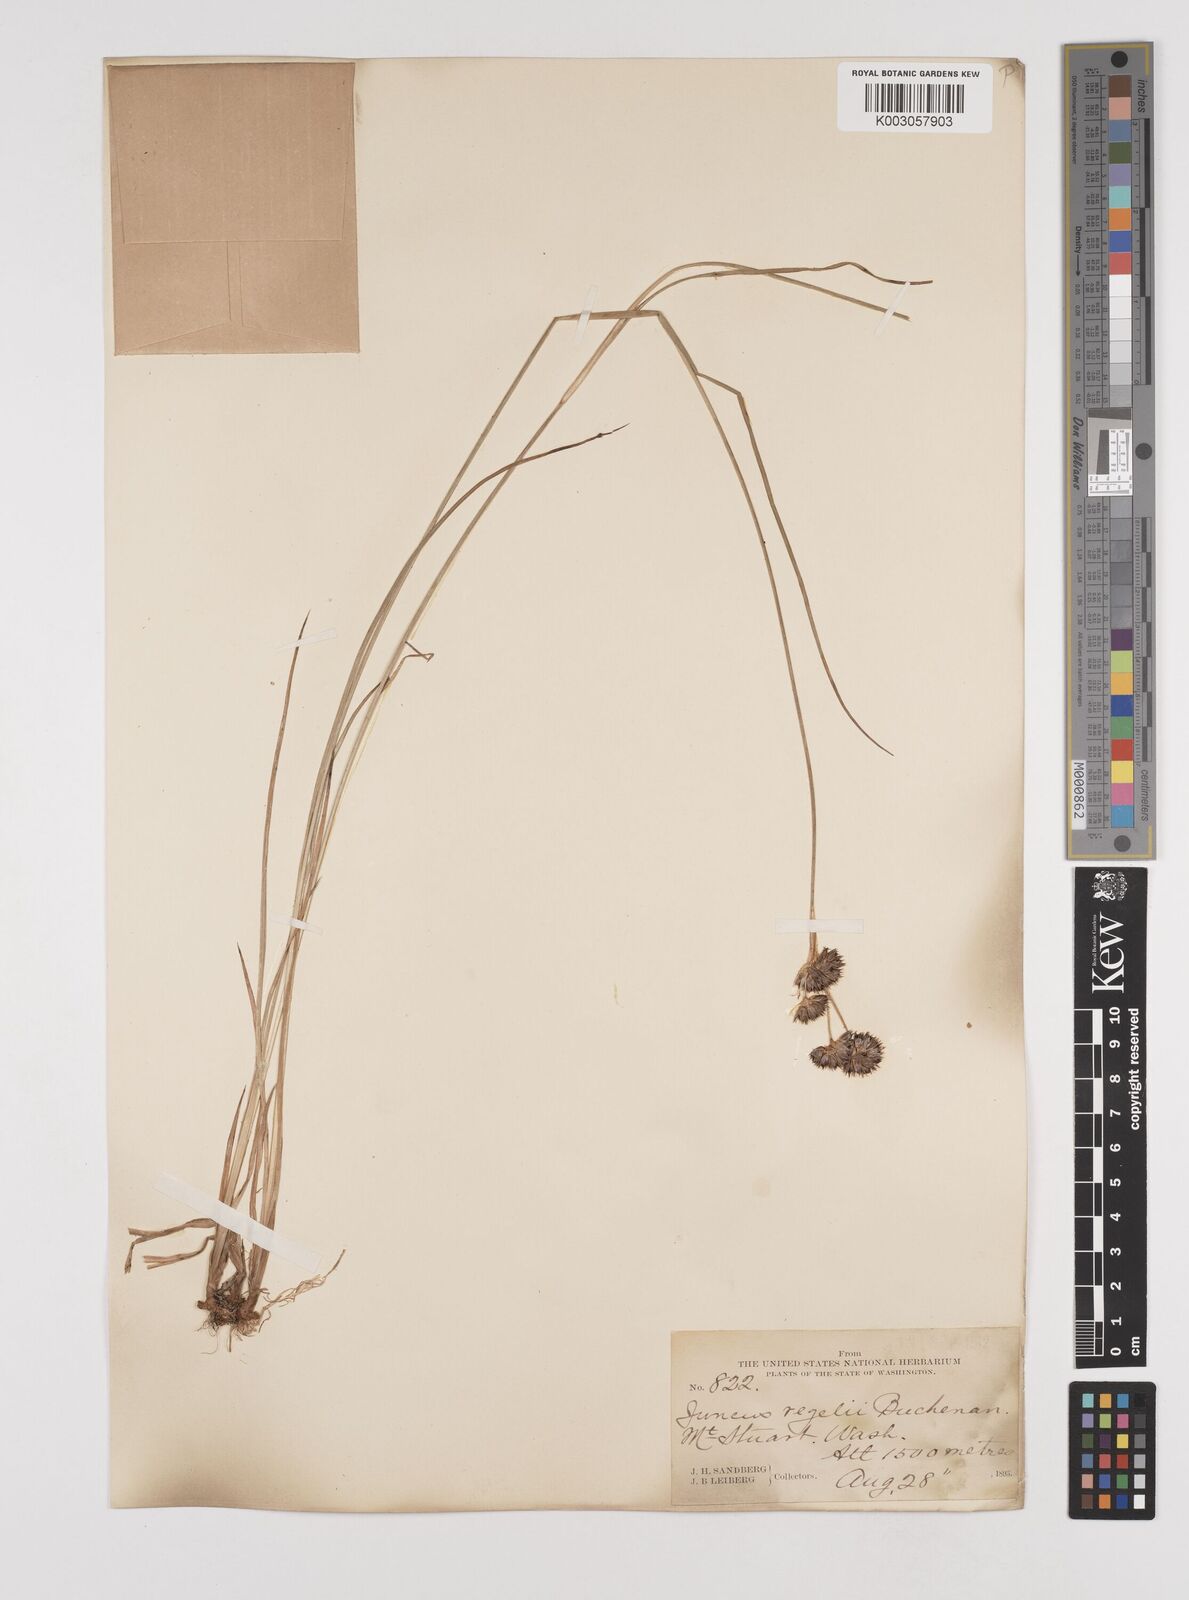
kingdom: Plantae
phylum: Tracheophyta
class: Liliopsida
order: Poales
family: Juncaceae
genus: Juncus
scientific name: Juncus regelii
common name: Regel's rush
